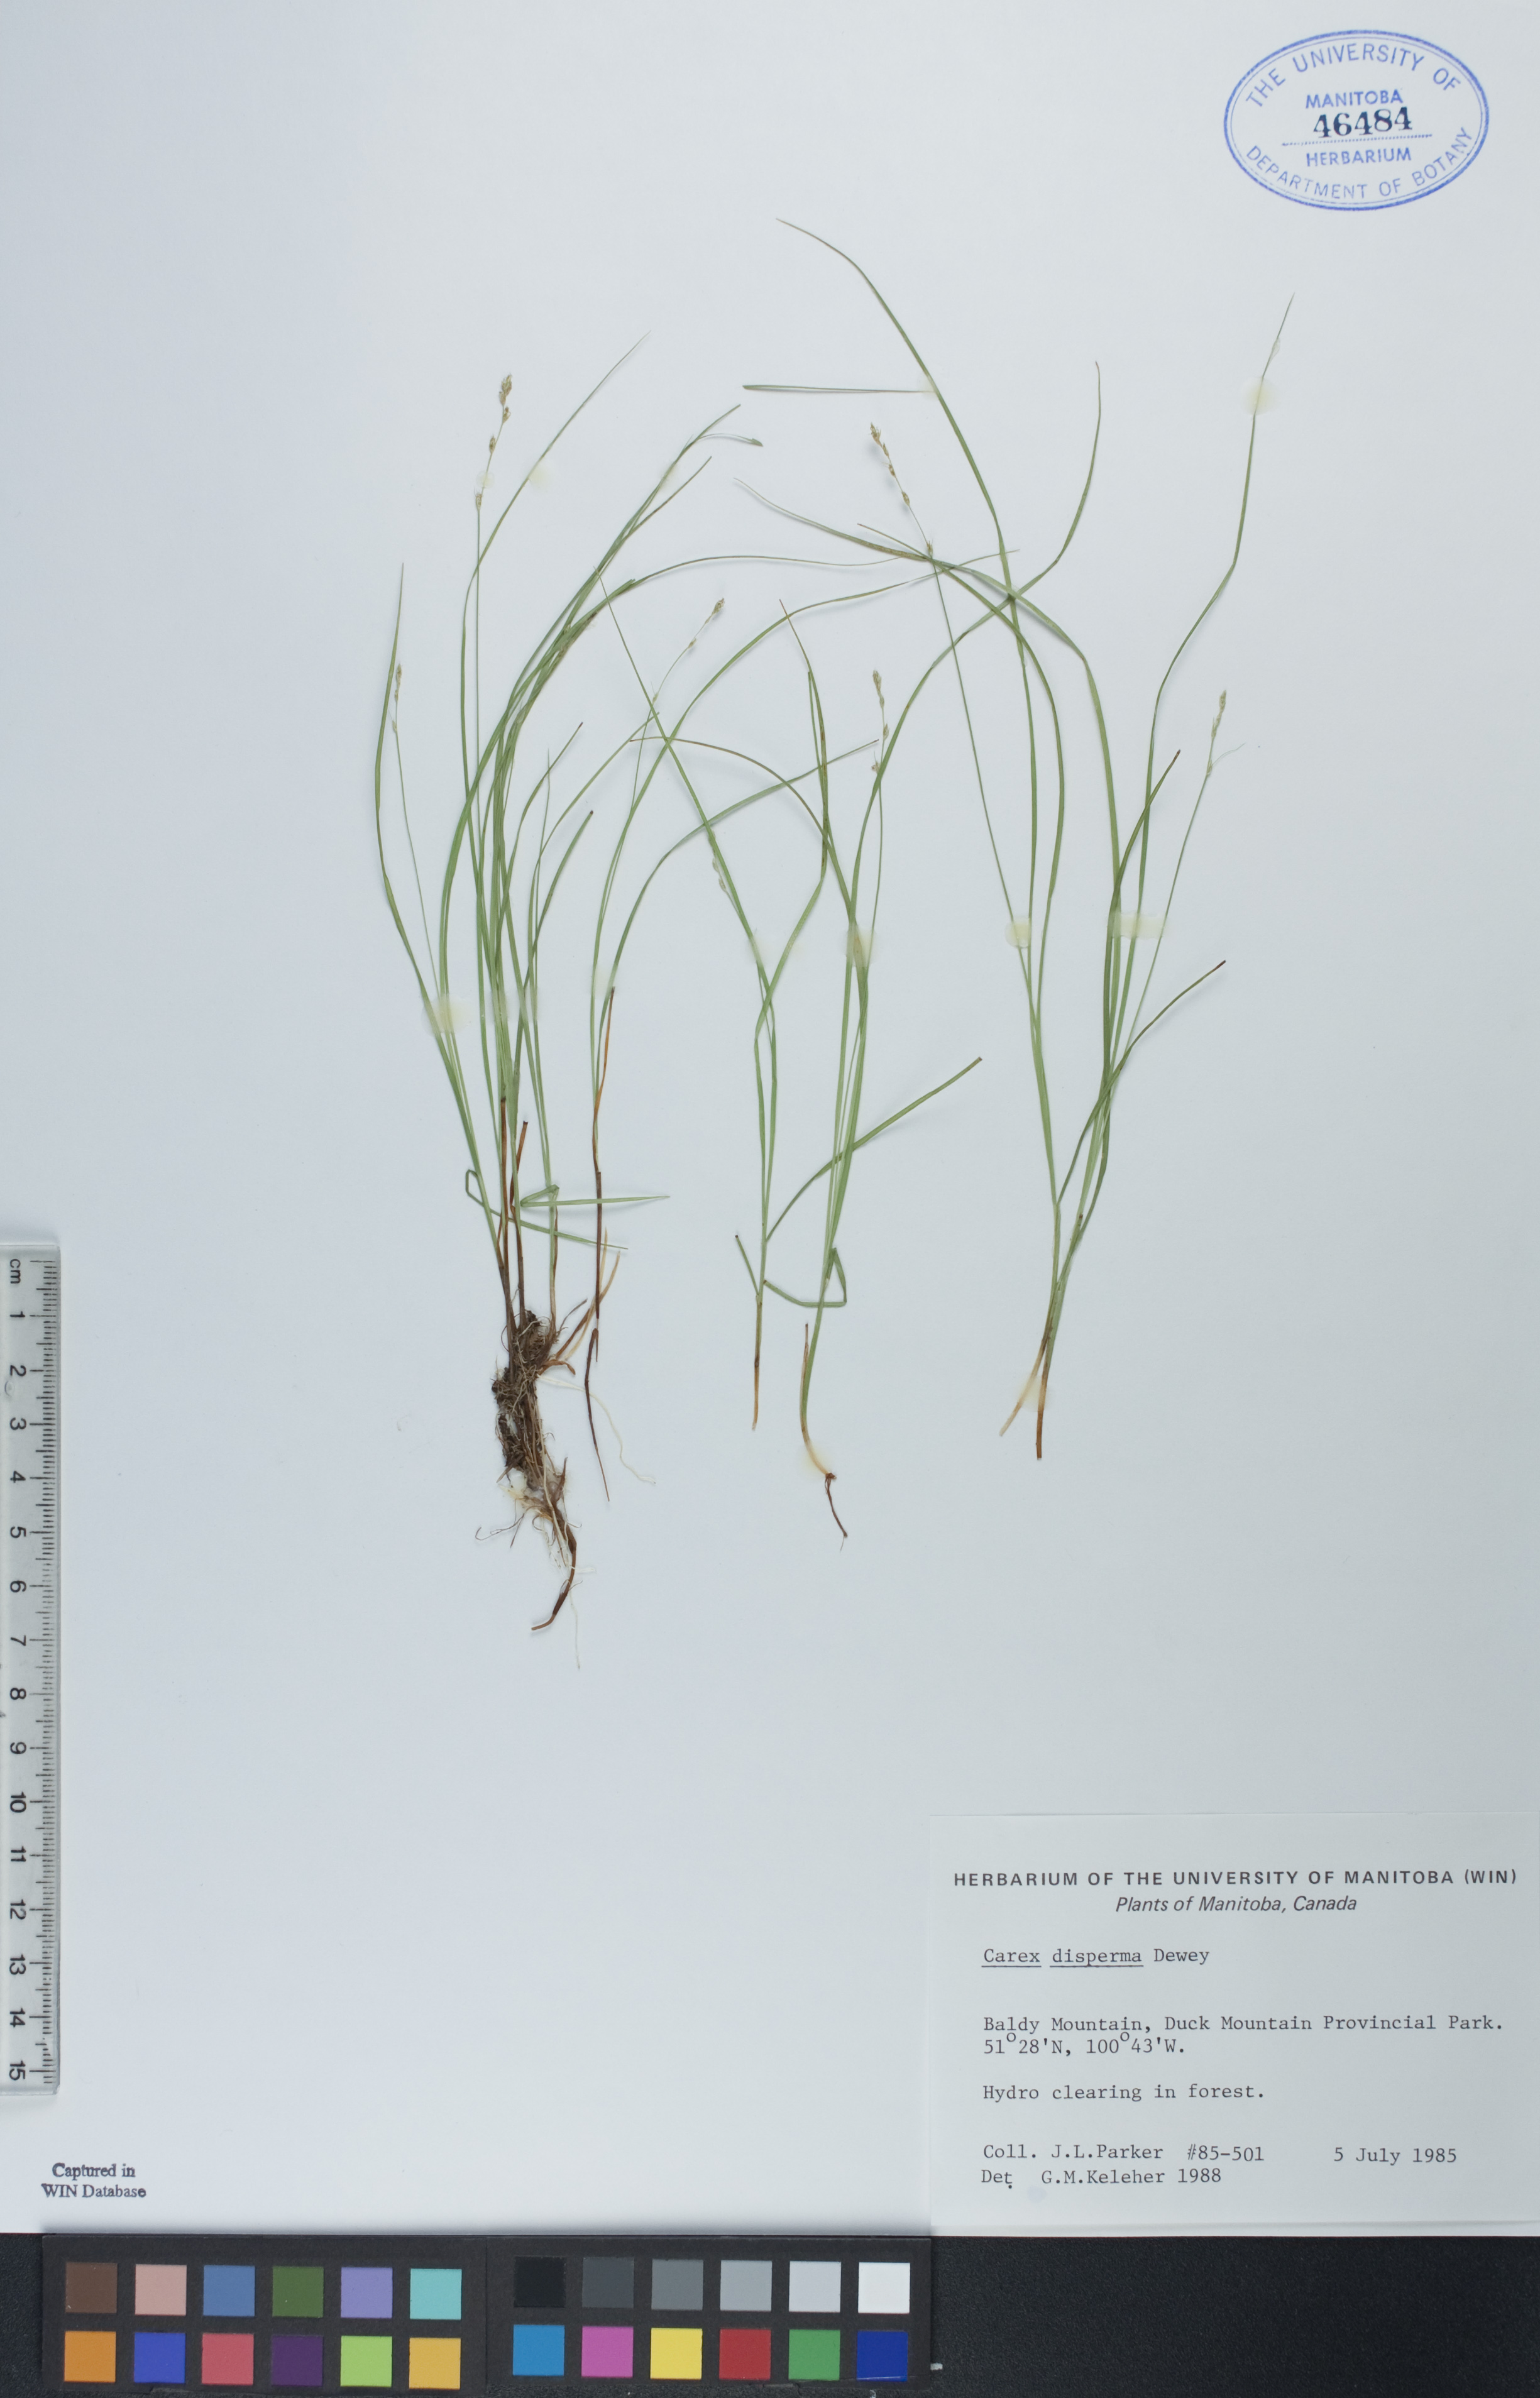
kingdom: Plantae
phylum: Tracheophyta
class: Liliopsida
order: Poales
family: Cyperaceae
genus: Carex
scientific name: Carex disperma
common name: Short-leaved sedge
